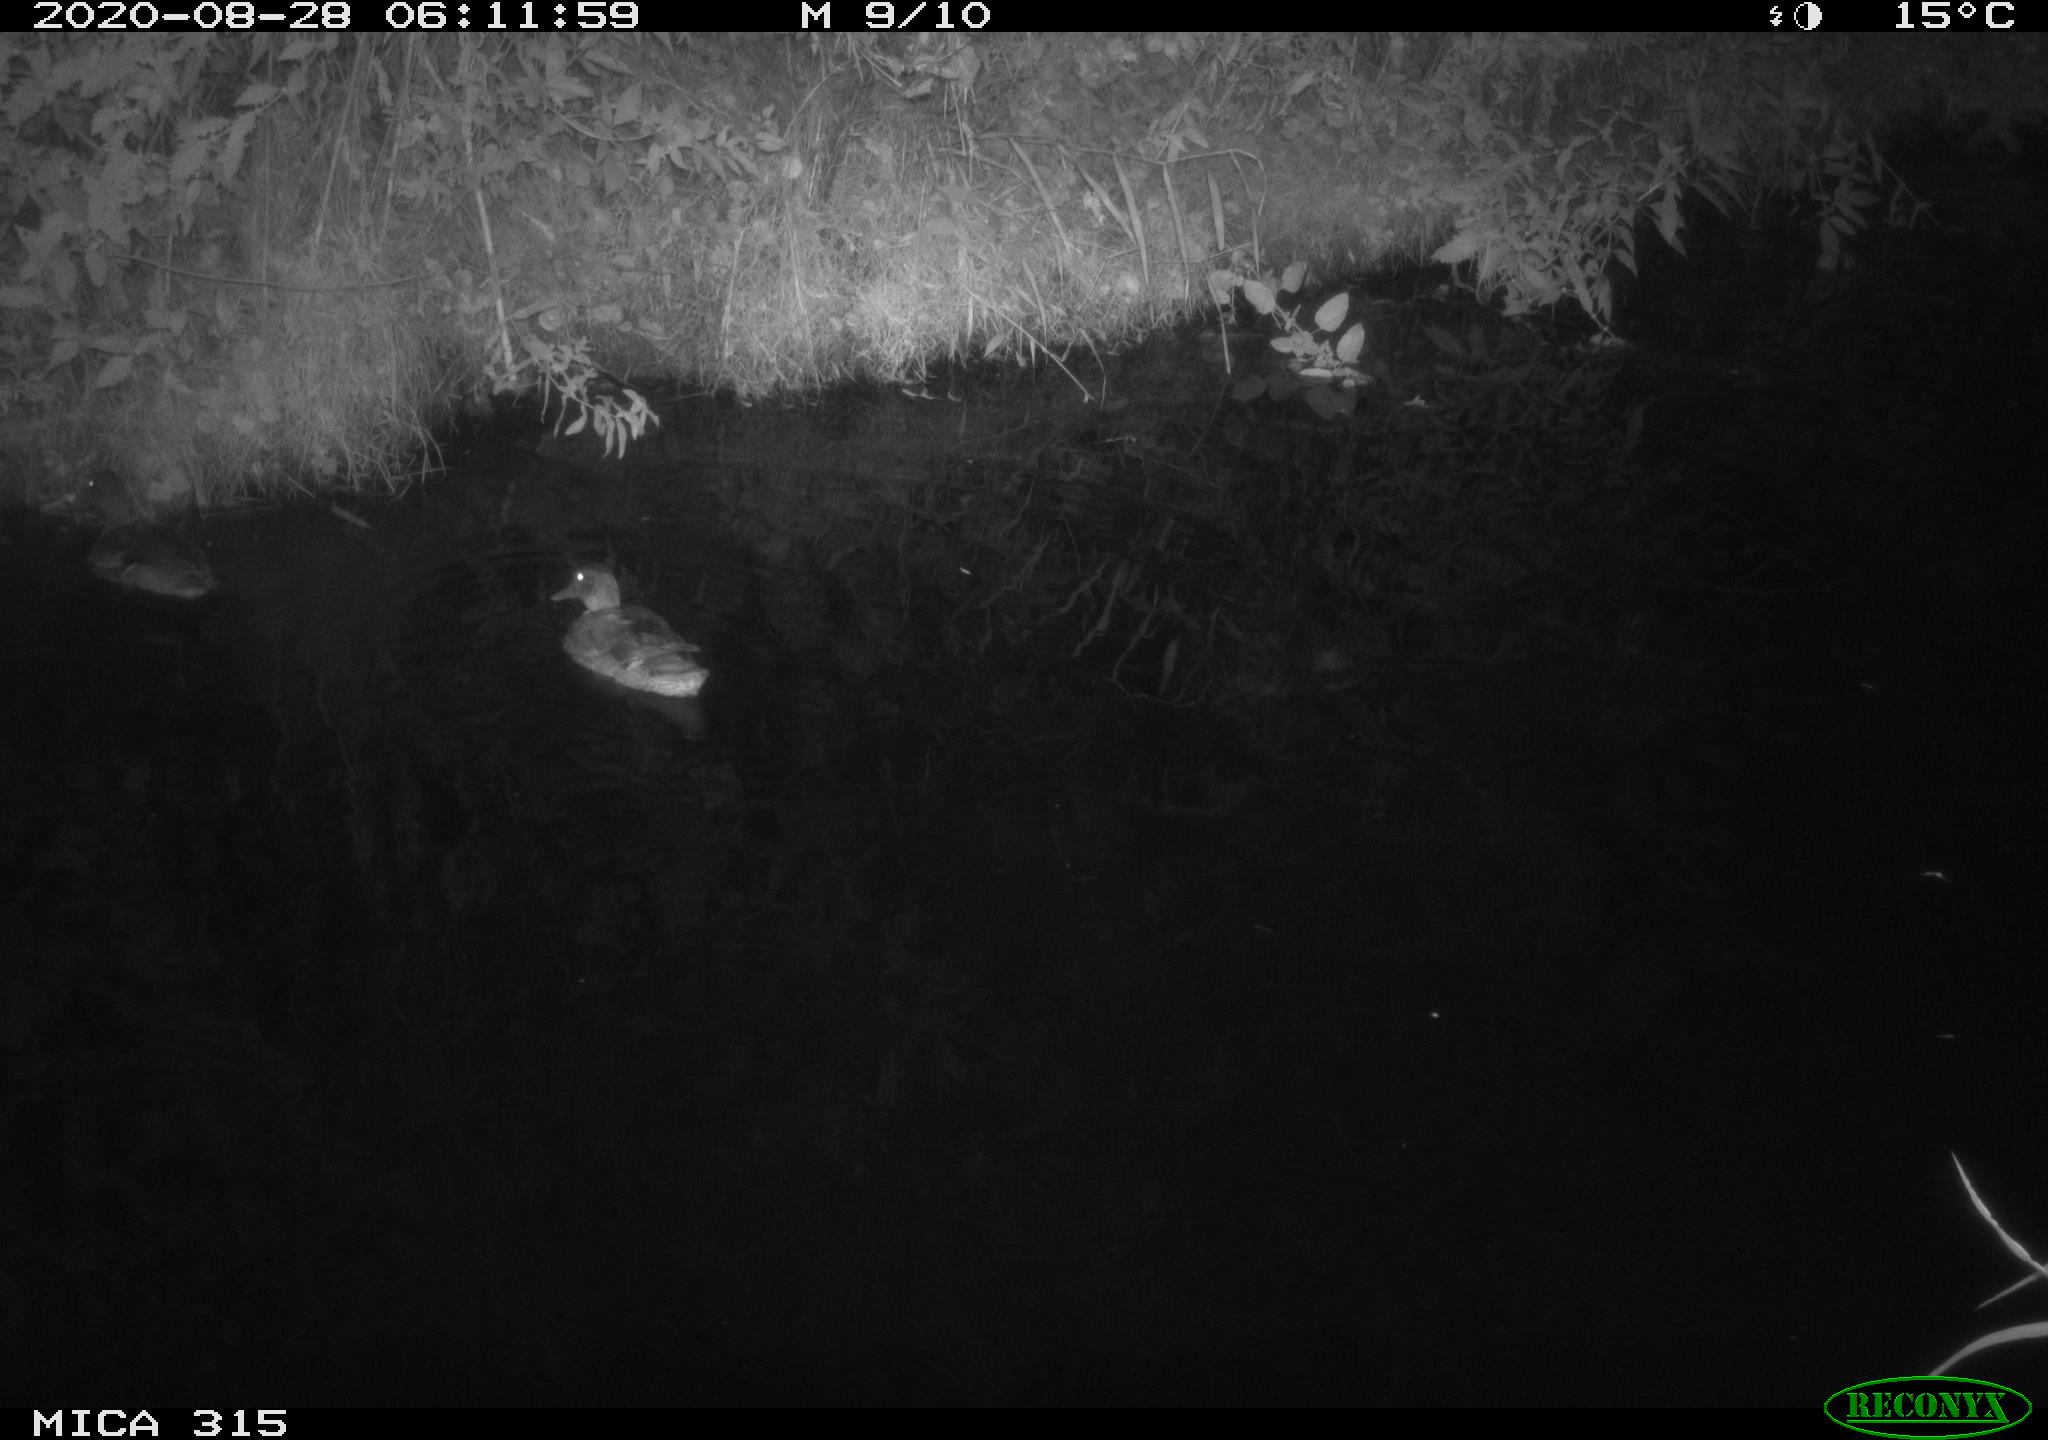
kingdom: Animalia
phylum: Chordata
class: Aves
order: Anseriformes
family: Anatidae
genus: Anas
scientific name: Anas platyrhynchos
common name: Mallard
